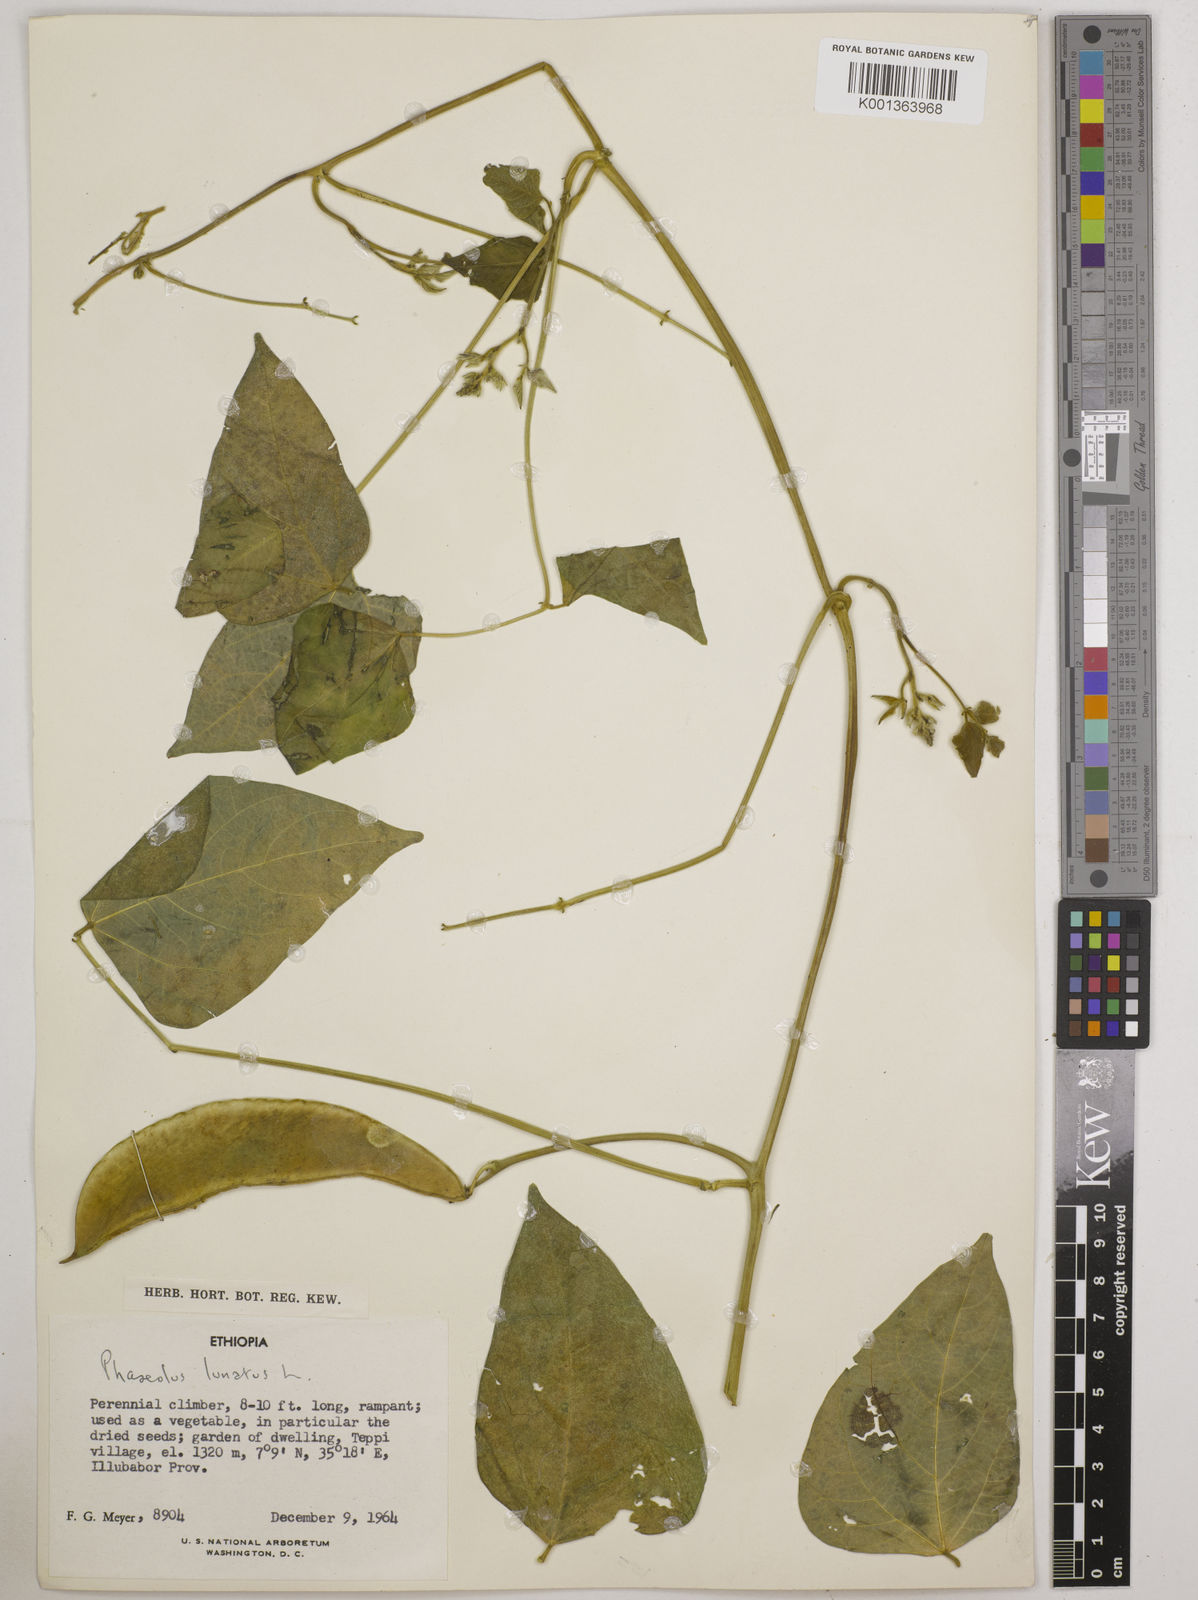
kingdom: Plantae
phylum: Tracheophyta
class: Magnoliopsida
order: Fabales
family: Fabaceae
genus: Phaseolus
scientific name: Phaseolus lunatus
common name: Sieva bean
